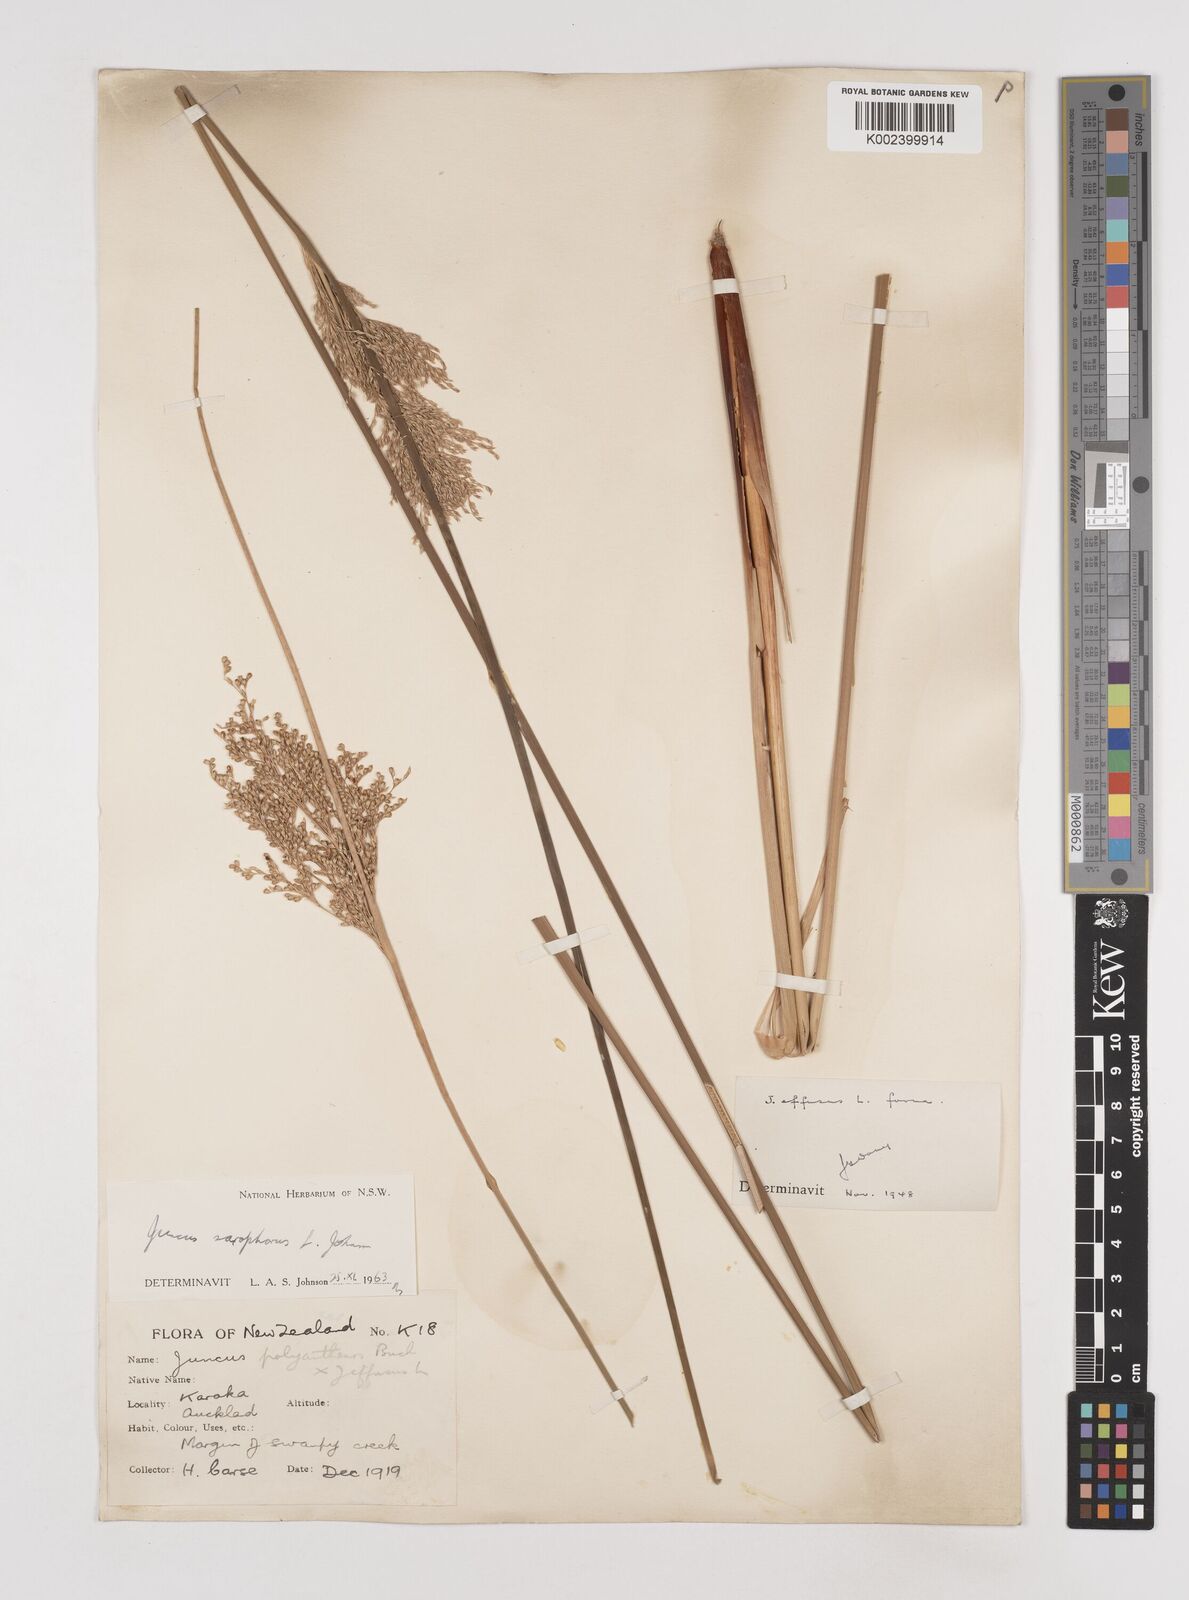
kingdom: Plantae
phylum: Tracheophyta
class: Liliopsida
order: Poales
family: Juncaceae
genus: Juncus
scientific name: Juncus sarophorus
